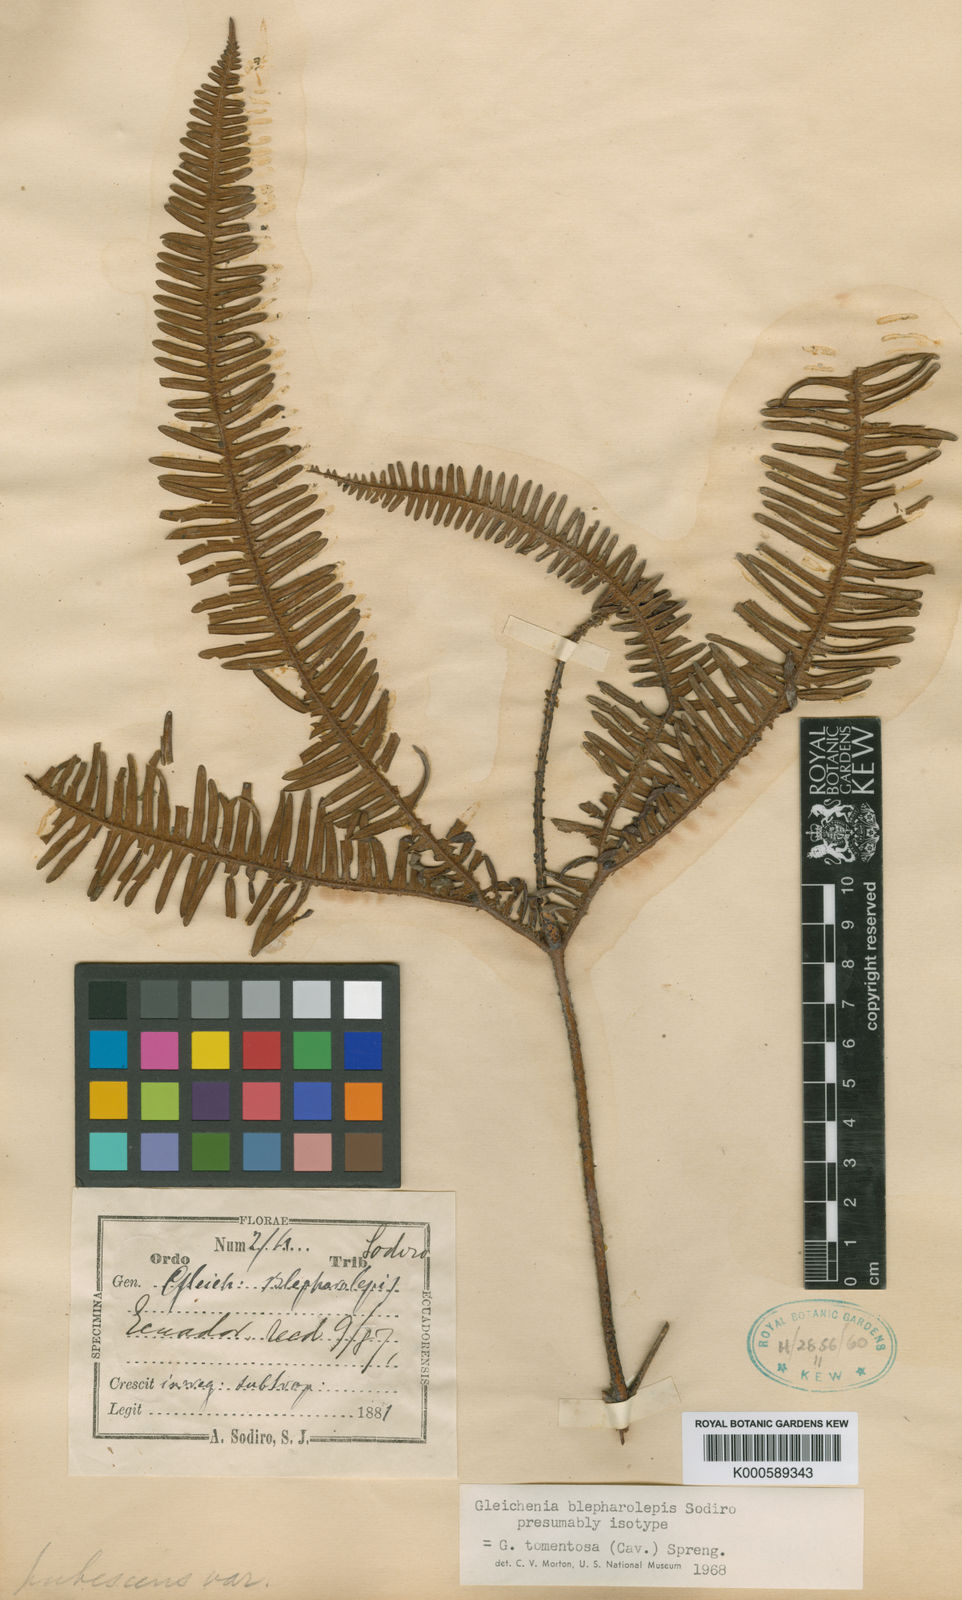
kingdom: Plantae
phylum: Tracheophyta
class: Polypodiopsida
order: Gleicheniales
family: Gleicheniaceae
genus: Sticherus
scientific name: Sticherus tomentosus
